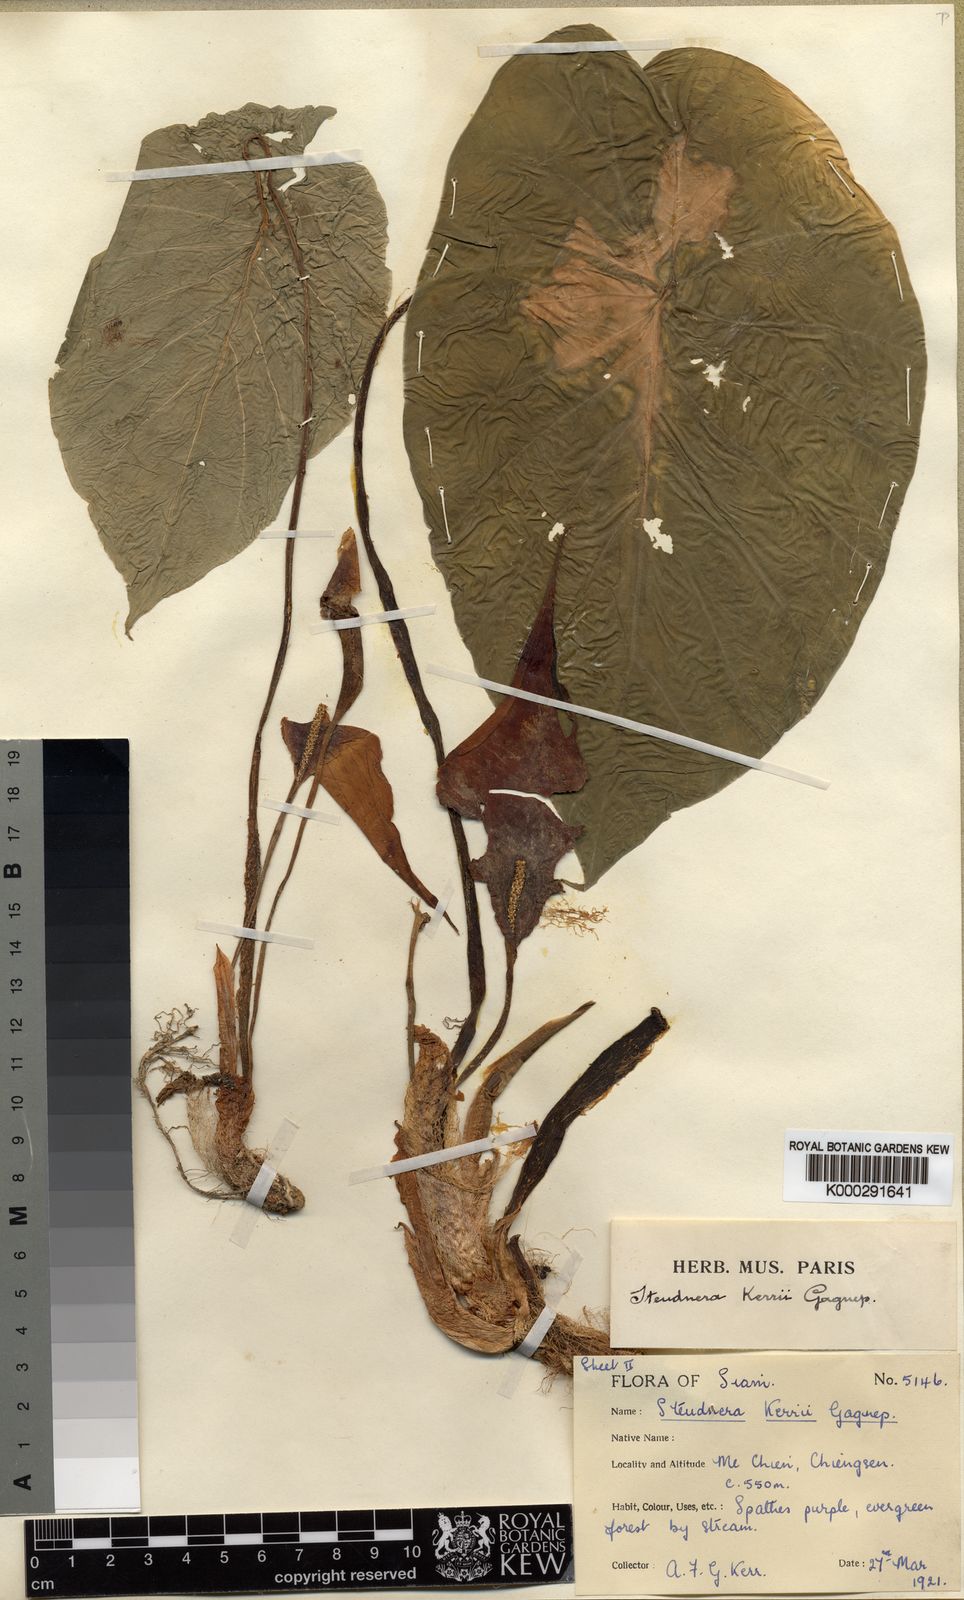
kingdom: Plantae
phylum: Tracheophyta
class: Liliopsida
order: Alismatales
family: Araceae
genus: Steudnera
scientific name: Steudnera kerrii
